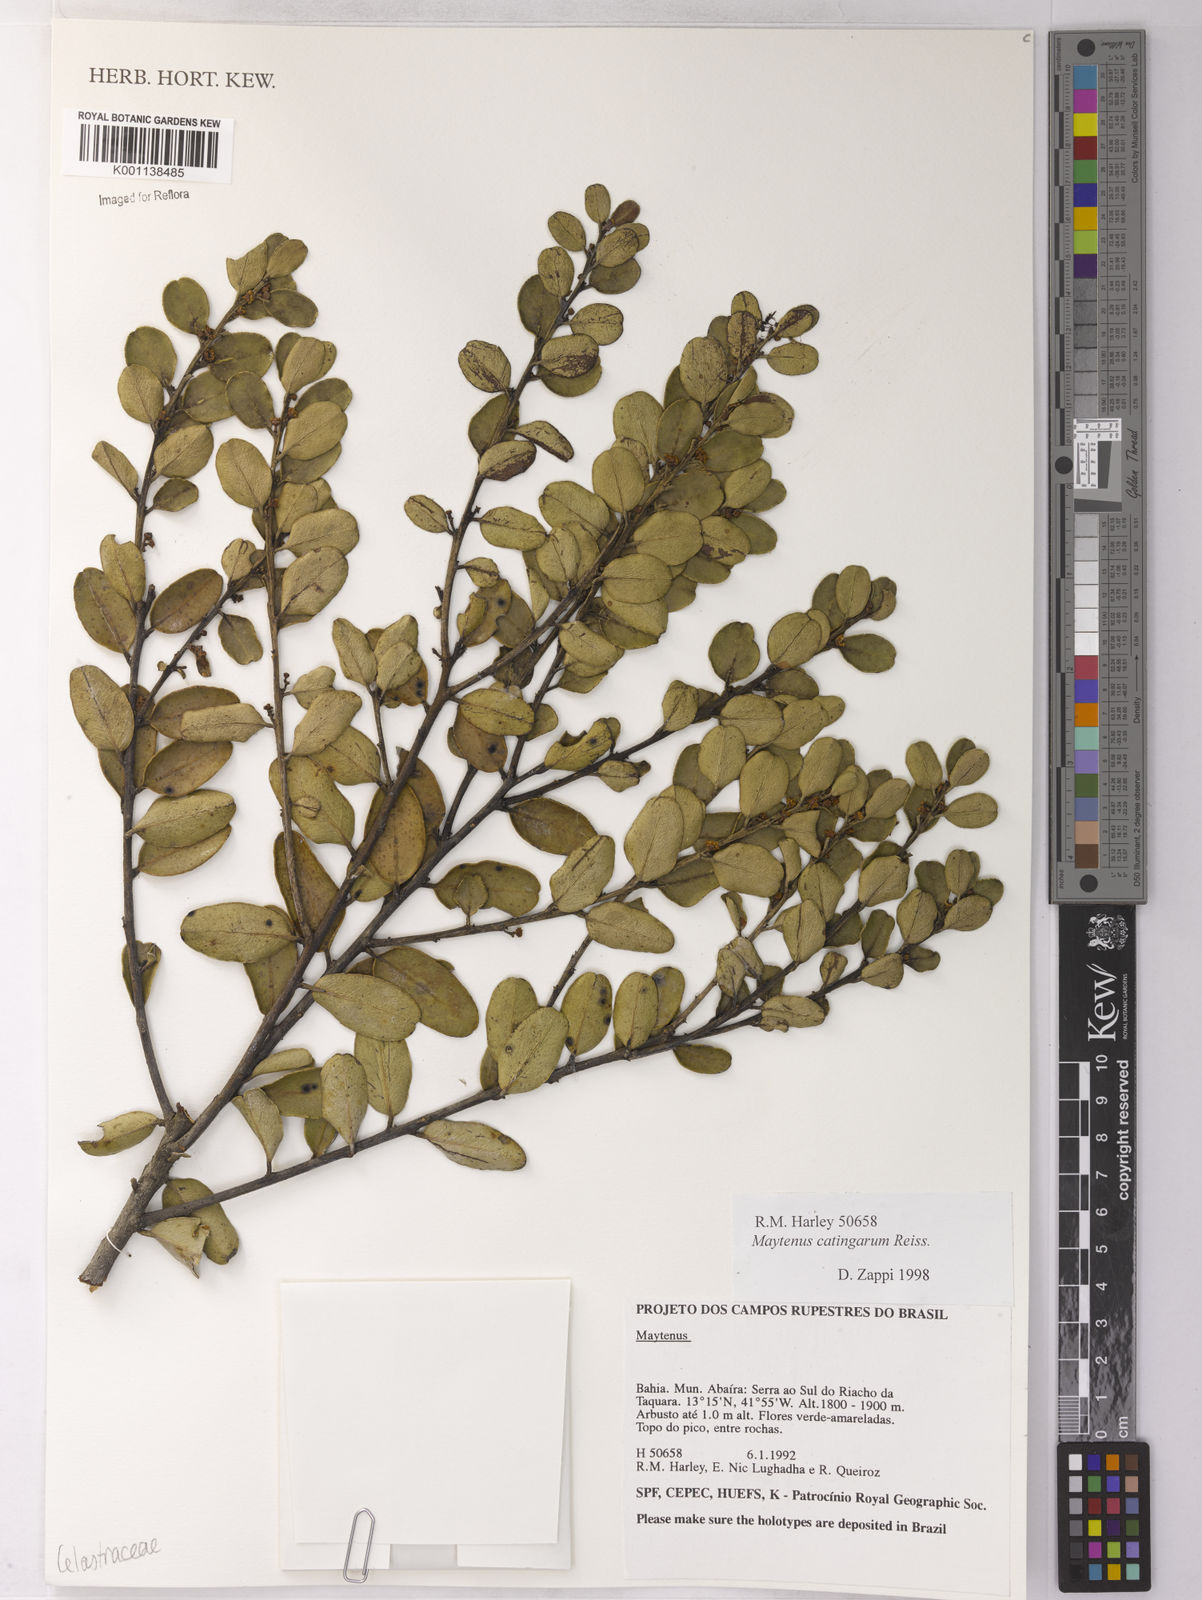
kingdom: Plantae
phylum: Tracheophyta
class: Magnoliopsida
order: Celastrales
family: Celastraceae
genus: Monteverdia
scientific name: Monteverdia catingarum
